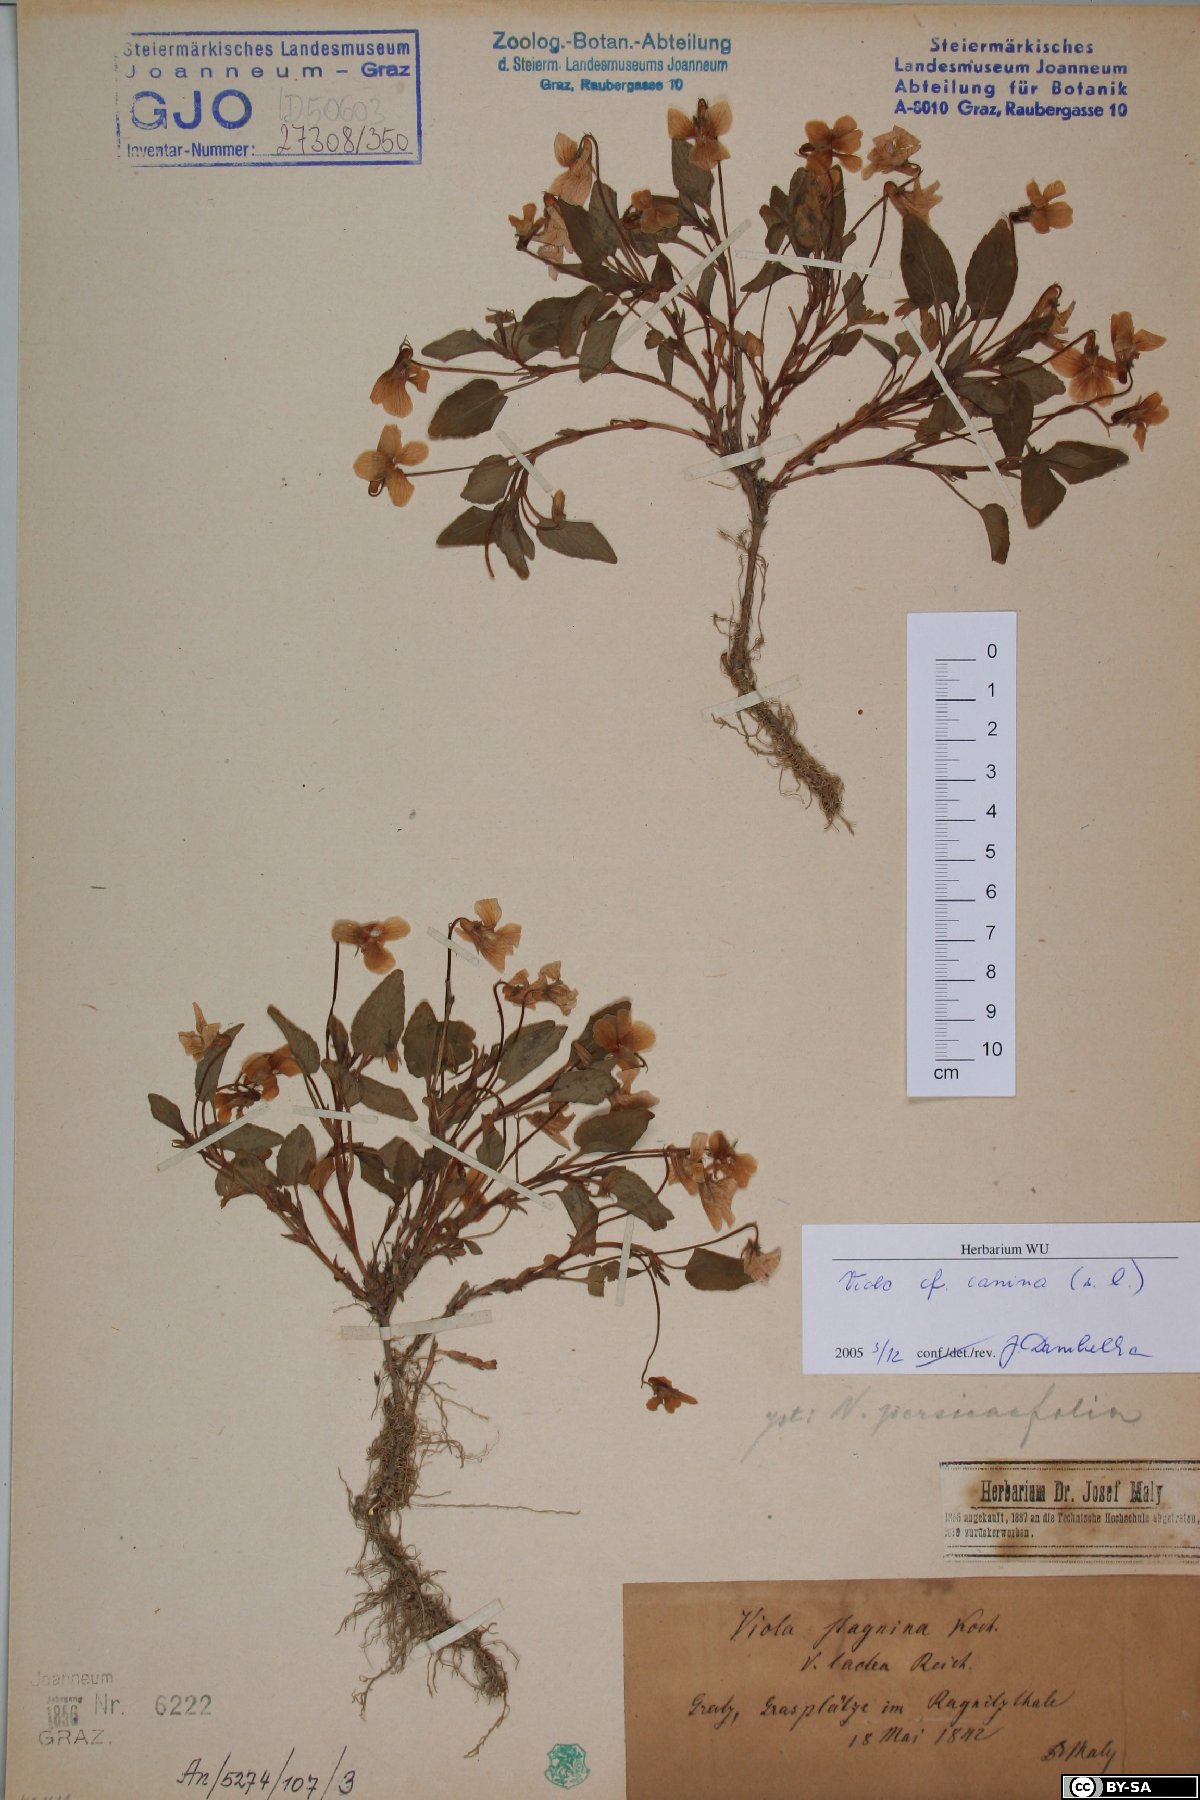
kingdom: Plantae
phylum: Tracheophyta
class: Magnoliopsida
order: Malpighiales
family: Violaceae
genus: Viola
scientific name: Viola canina
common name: Heath dog-violet
